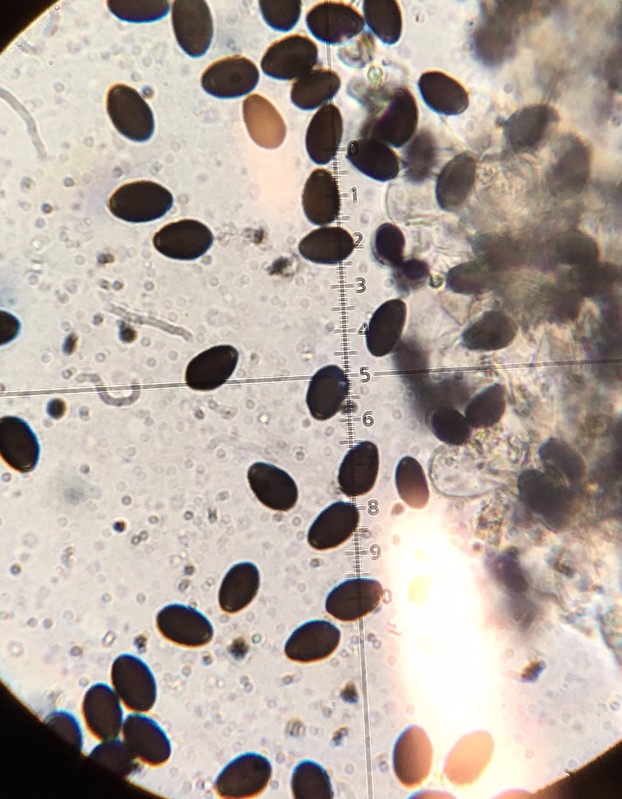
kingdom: Fungi
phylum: Basidiomycota
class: Agaricomycetes
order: Agaricales
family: Psathyrellaceae
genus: Parasola
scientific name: Parasola
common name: hjulhat
